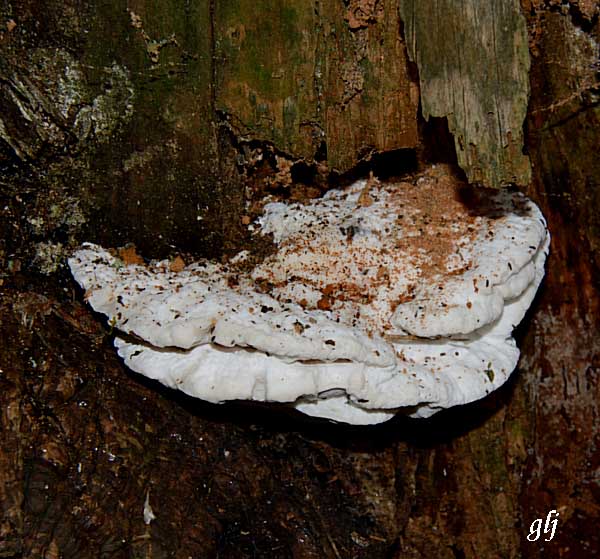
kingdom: Fungi
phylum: Basidiomycota
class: Agaricomycetes
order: Polyporales
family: Incrustoporiaceae
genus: Tyromyces
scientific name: Tyromyces chioneus
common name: stor blødporesvamp
